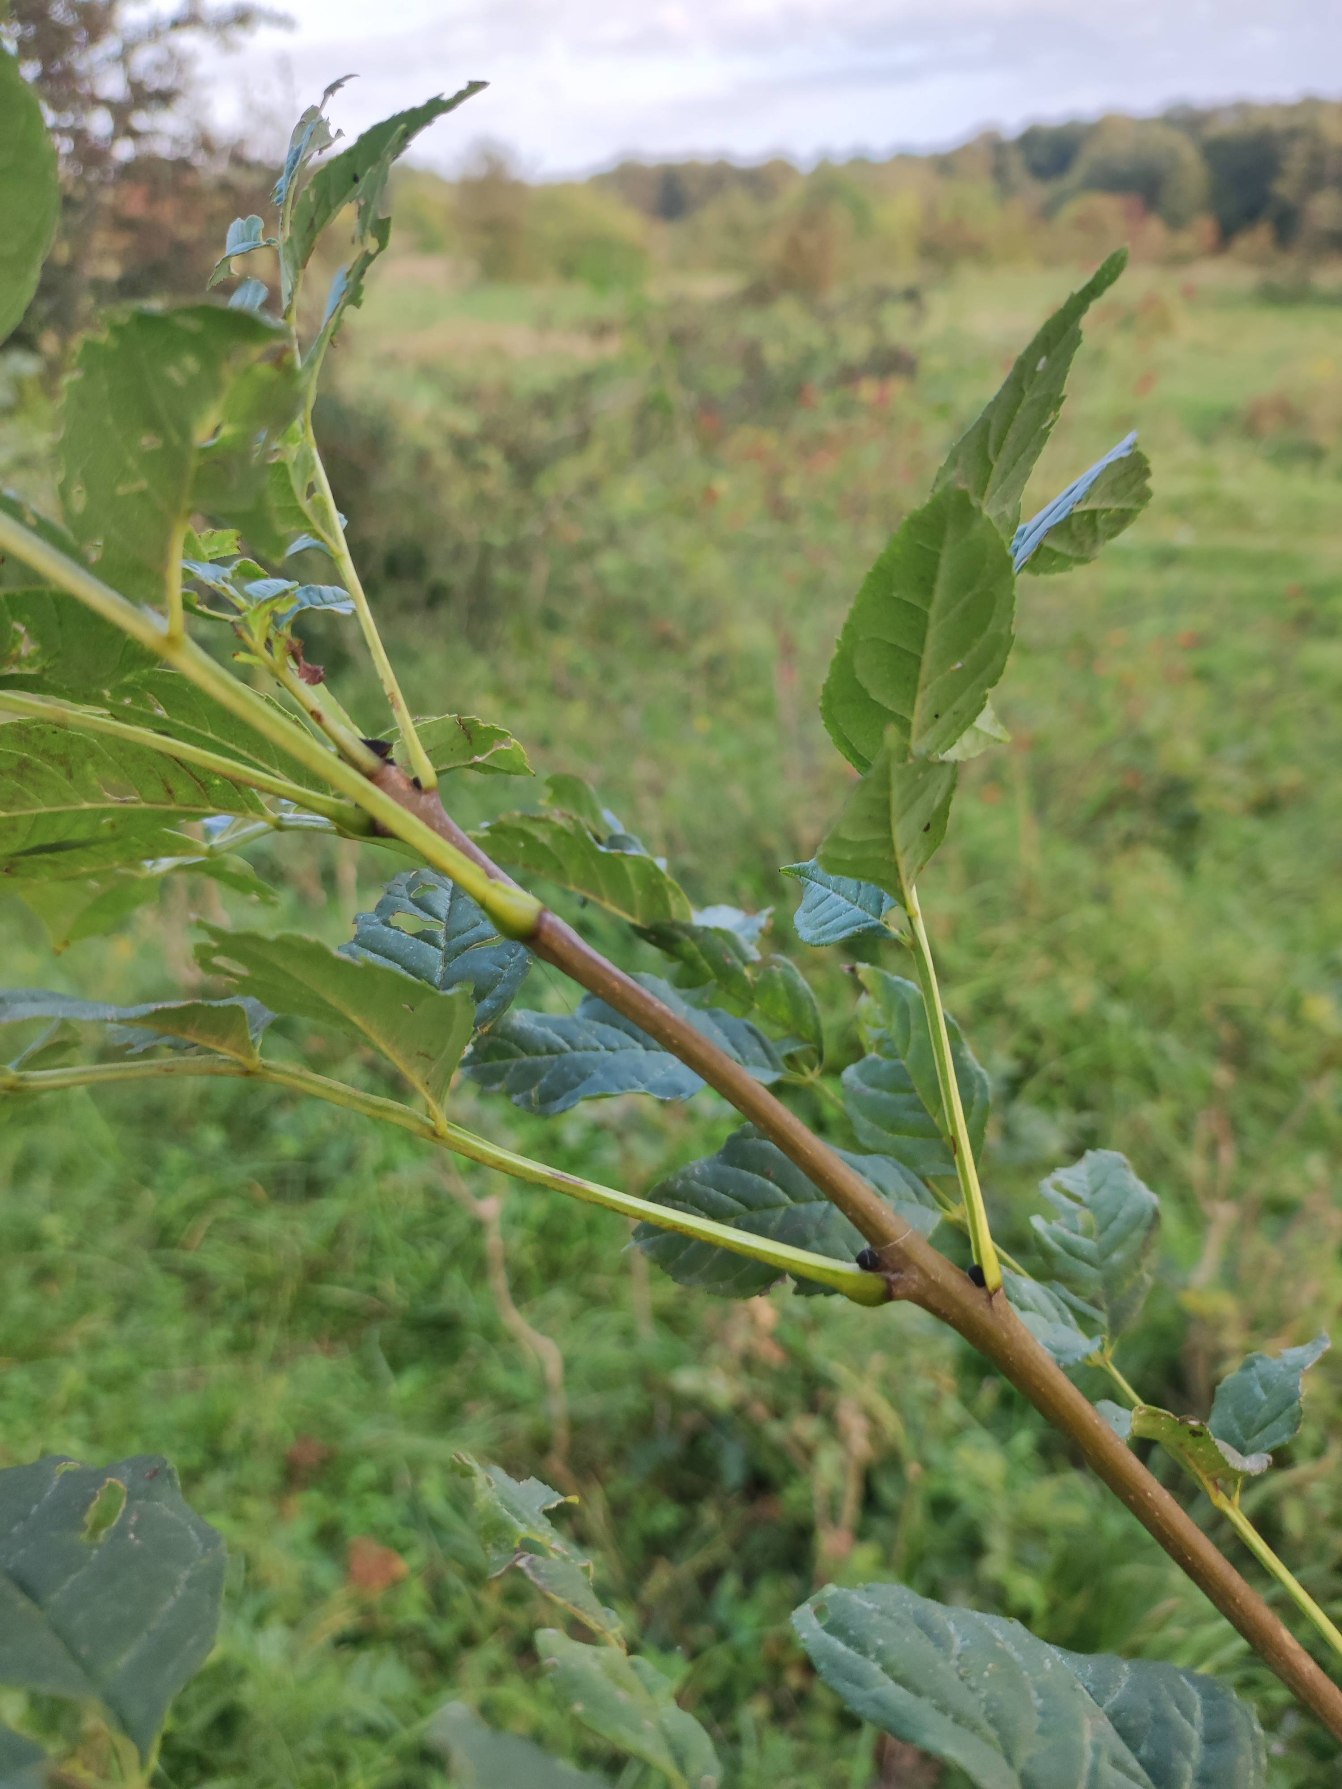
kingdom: Plantae
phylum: Tracheophyta
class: Magnoliopsida
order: Lamiales
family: Oleaceae
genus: Fraxinus
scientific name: Fraxinus excelsior
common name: Ask
